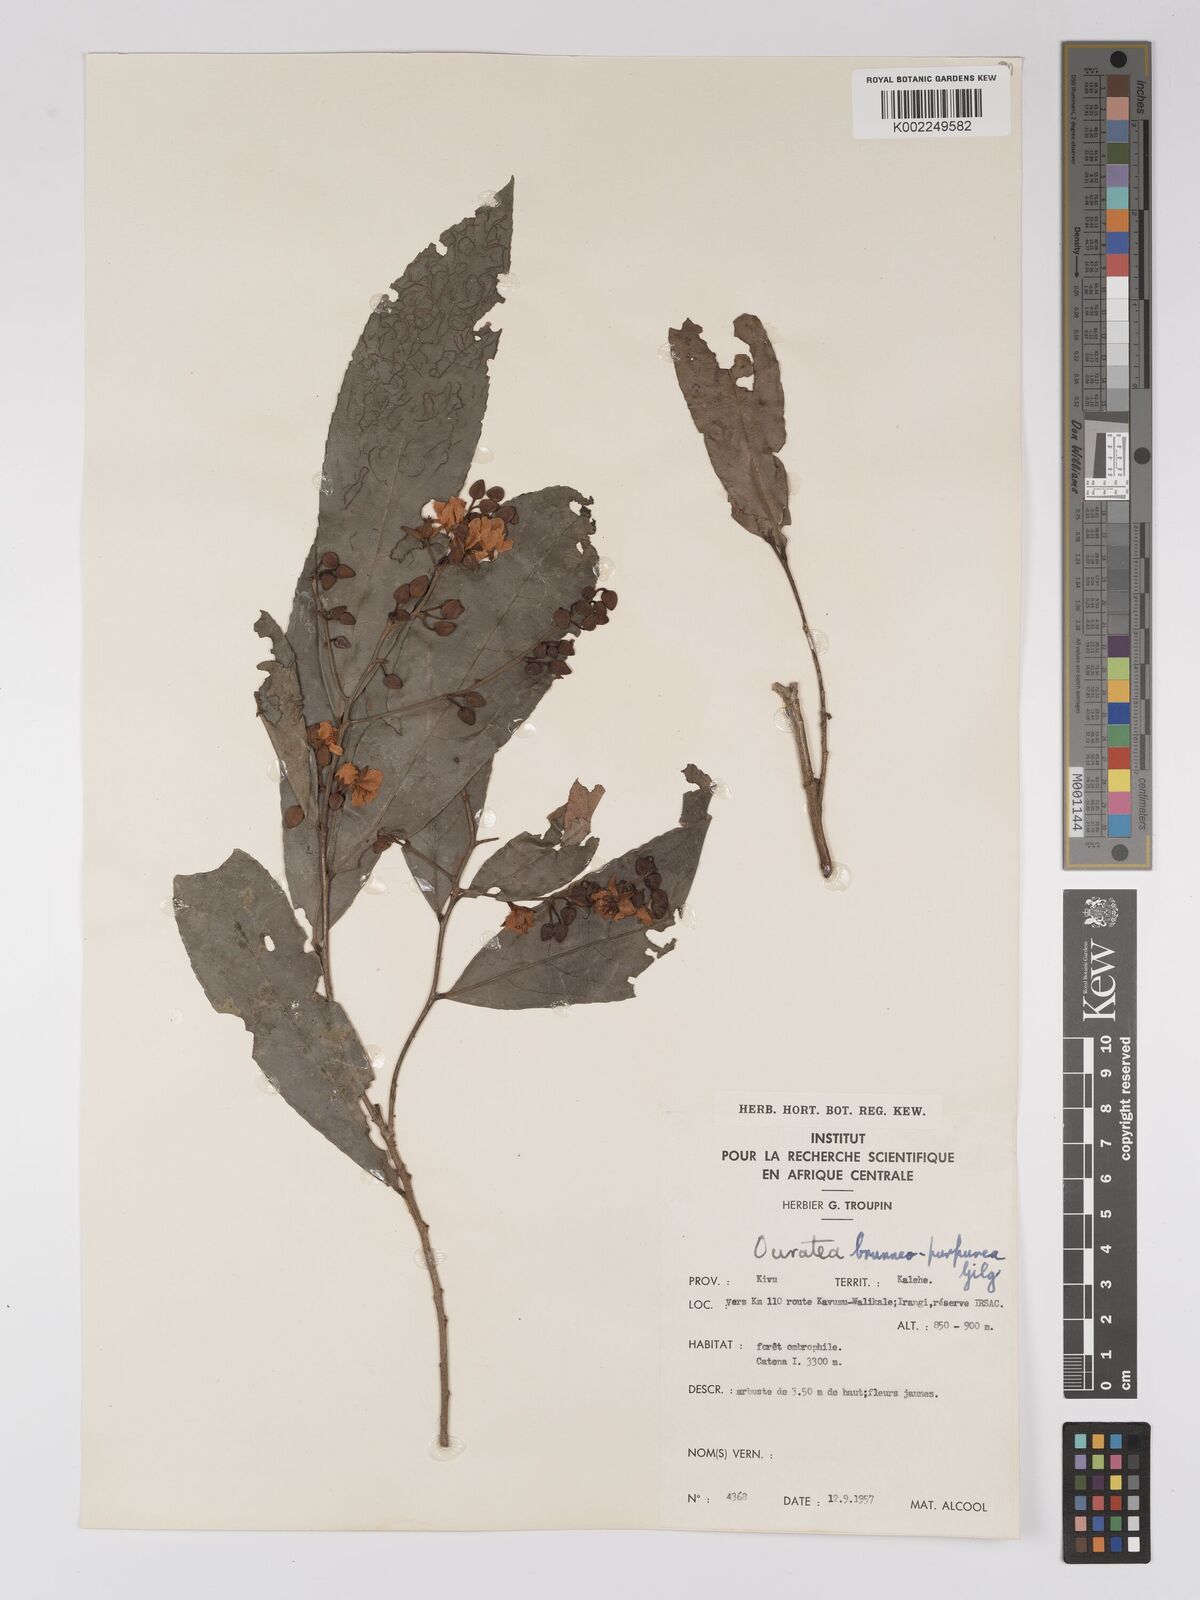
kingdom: Plantae
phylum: Tracheophyta
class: Magnoliopsida
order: Malpighiales
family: Ochnaceae
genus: Campylospermum
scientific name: Campylospermum reticulatum
